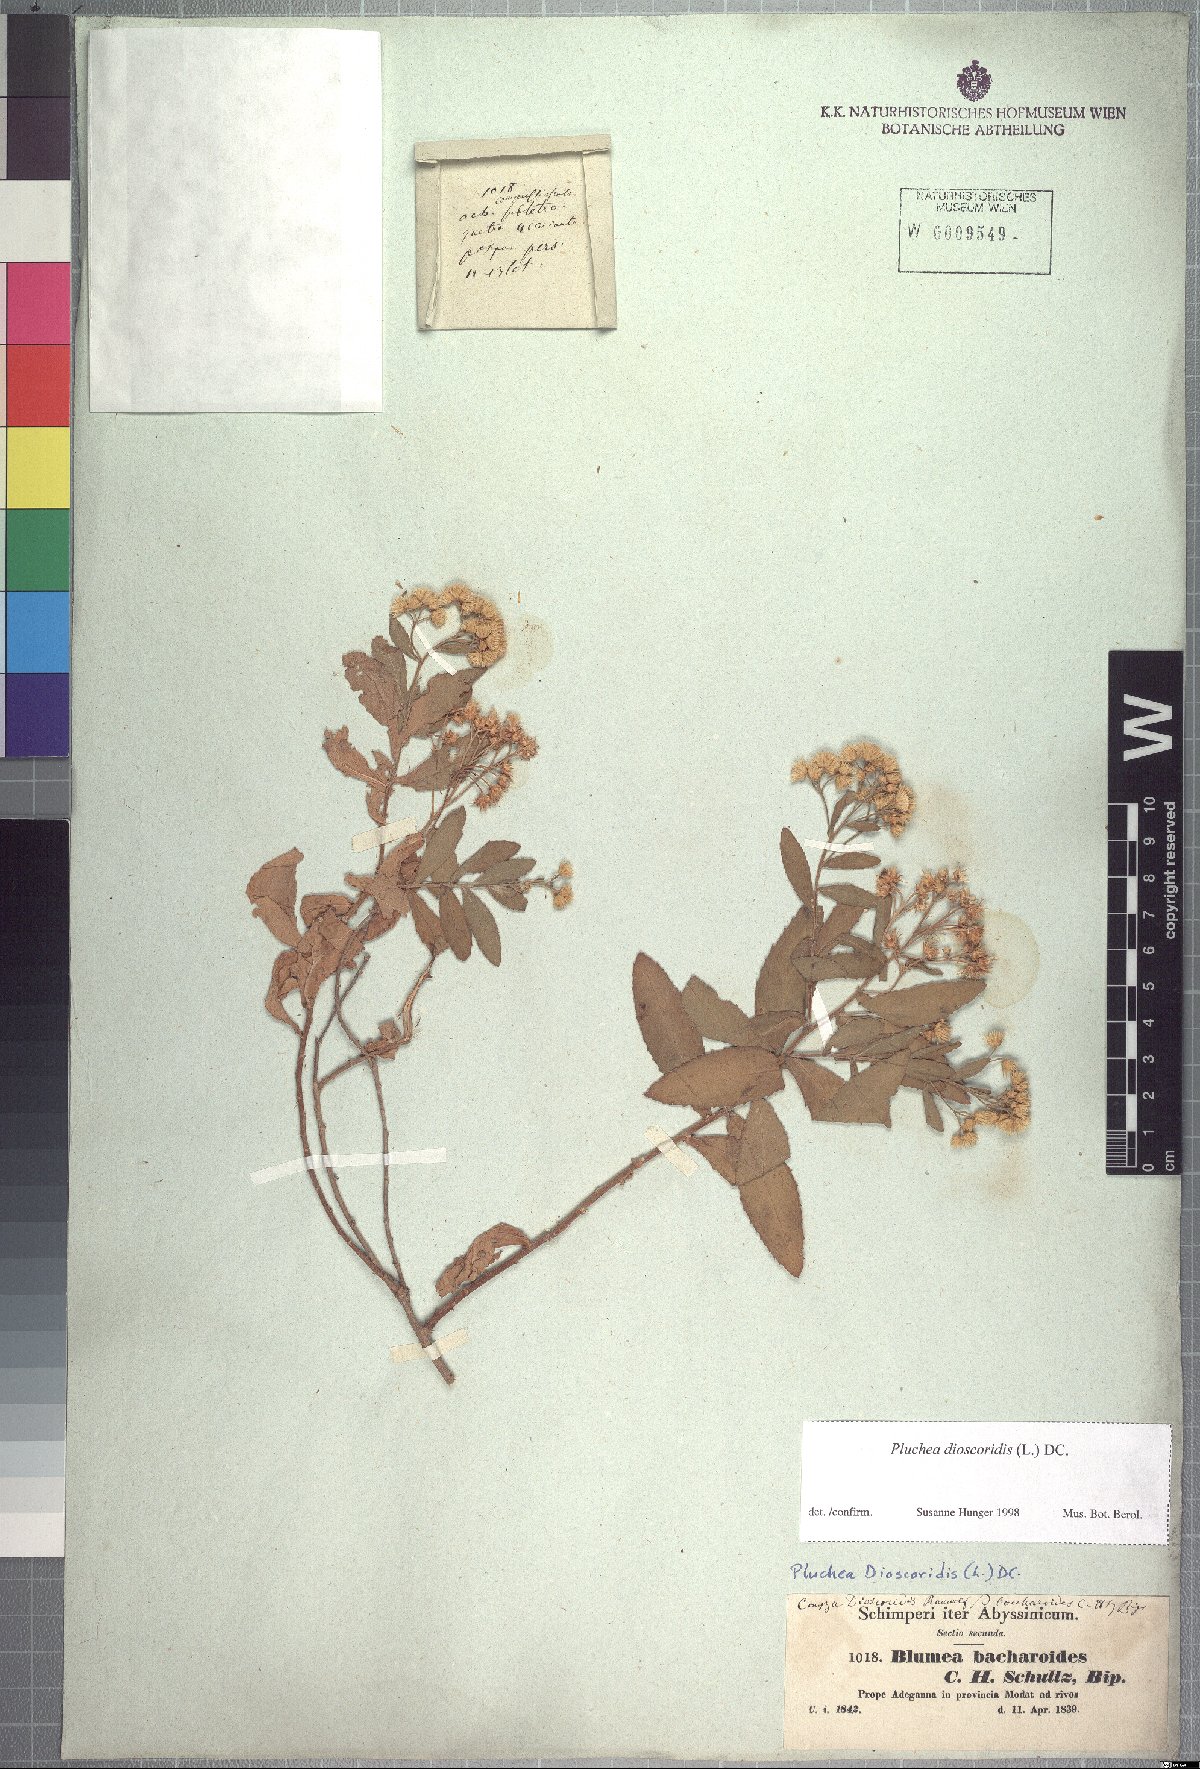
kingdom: Plantae
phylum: Tracheophyta
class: Magnoliopsida
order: Asterales
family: Asteraceae
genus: Pluchea
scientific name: Pluchea dioscoridis
